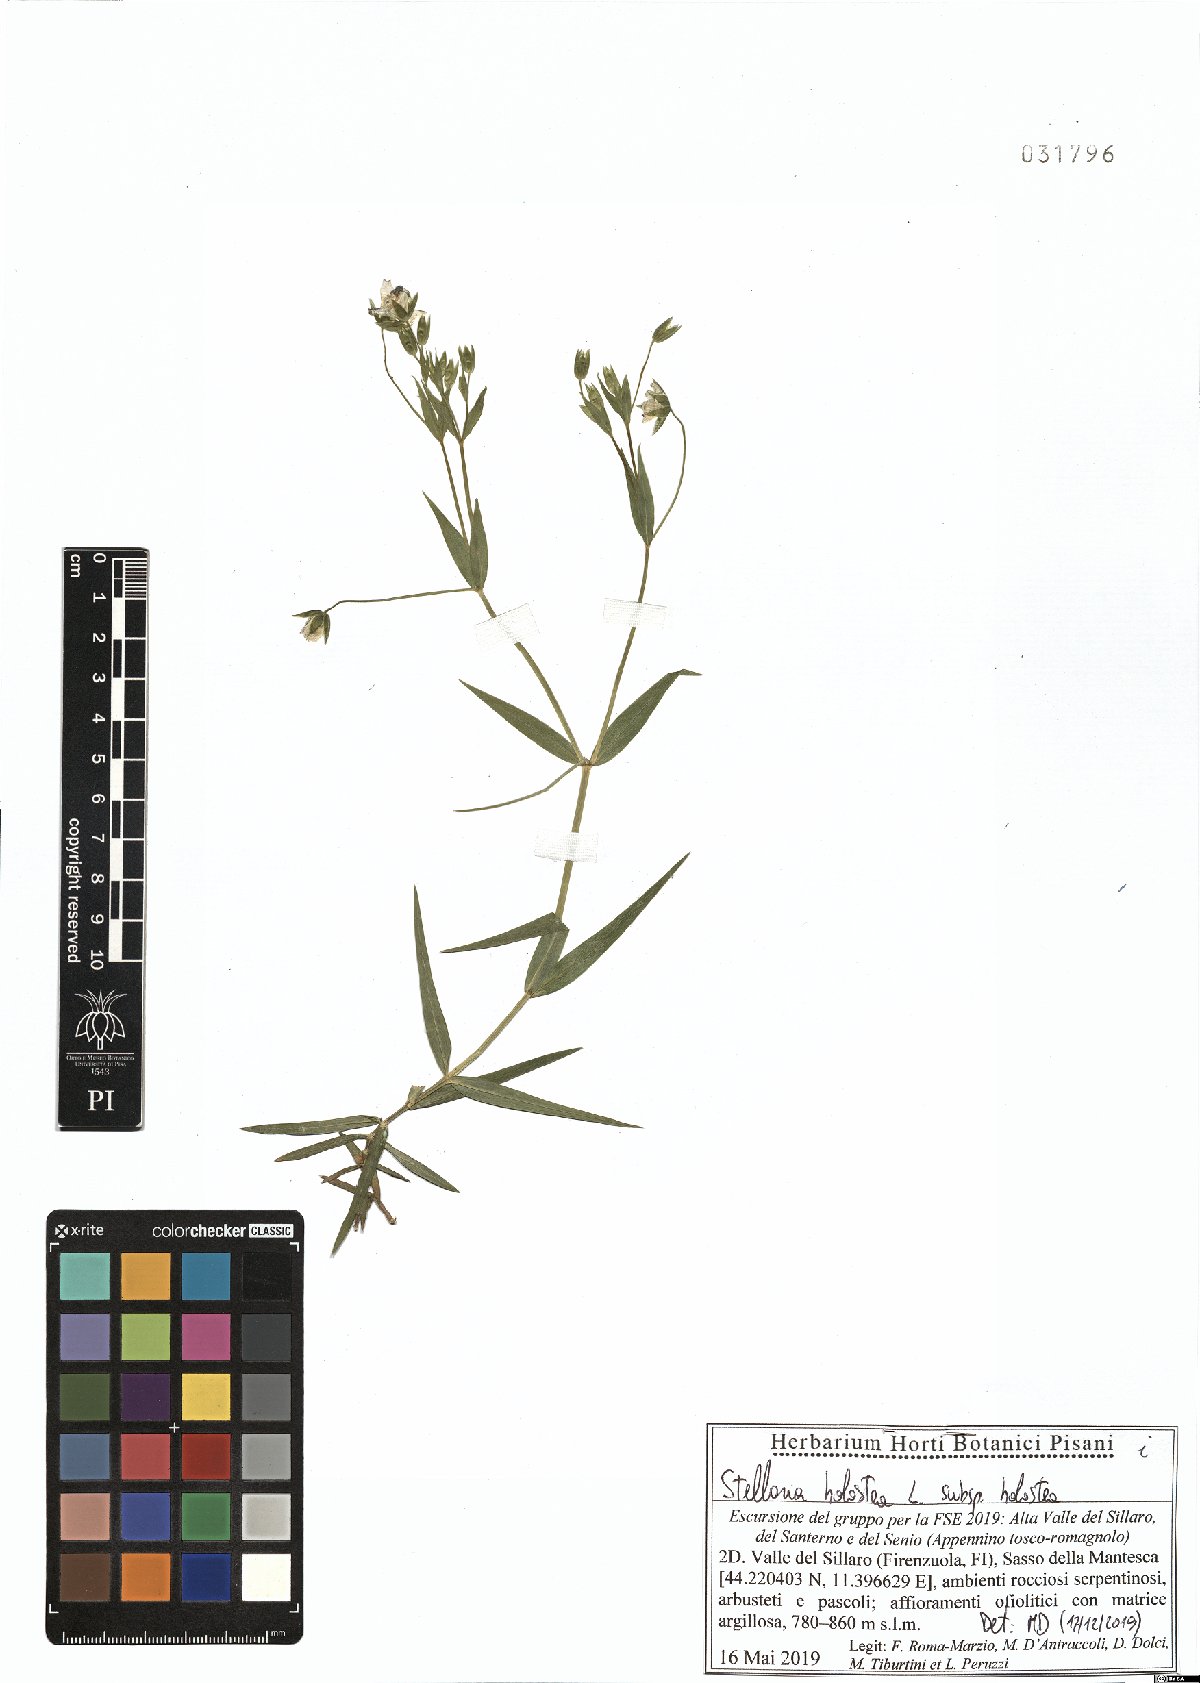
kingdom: Plantae
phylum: Tracheophyta
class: Magnoliopsida
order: Caryophyllales
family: Caryophyllaceae
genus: Rabelera
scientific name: Rabelera holostea
